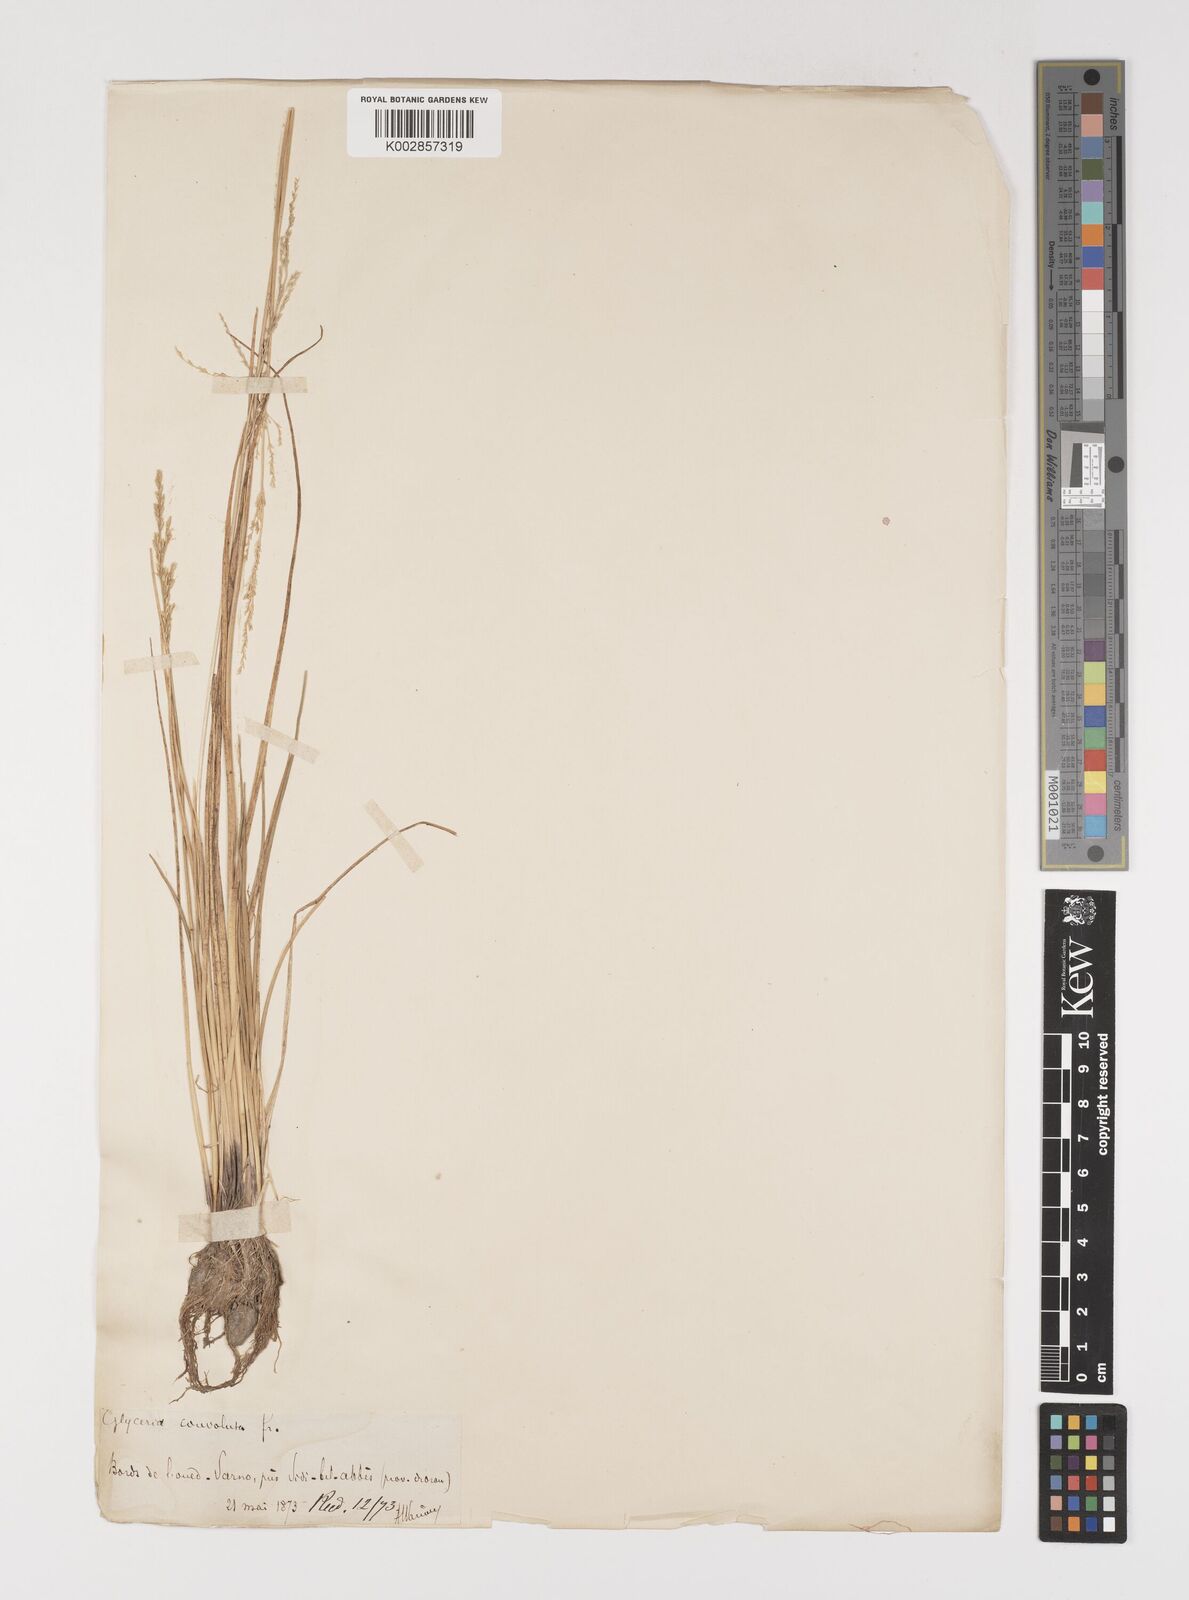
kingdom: Plantae
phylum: Tracheophyta
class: Liliopsida
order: Poales
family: Poaceae
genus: Puccinellia
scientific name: Puccinellia distans
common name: Weeping alkaligrass
